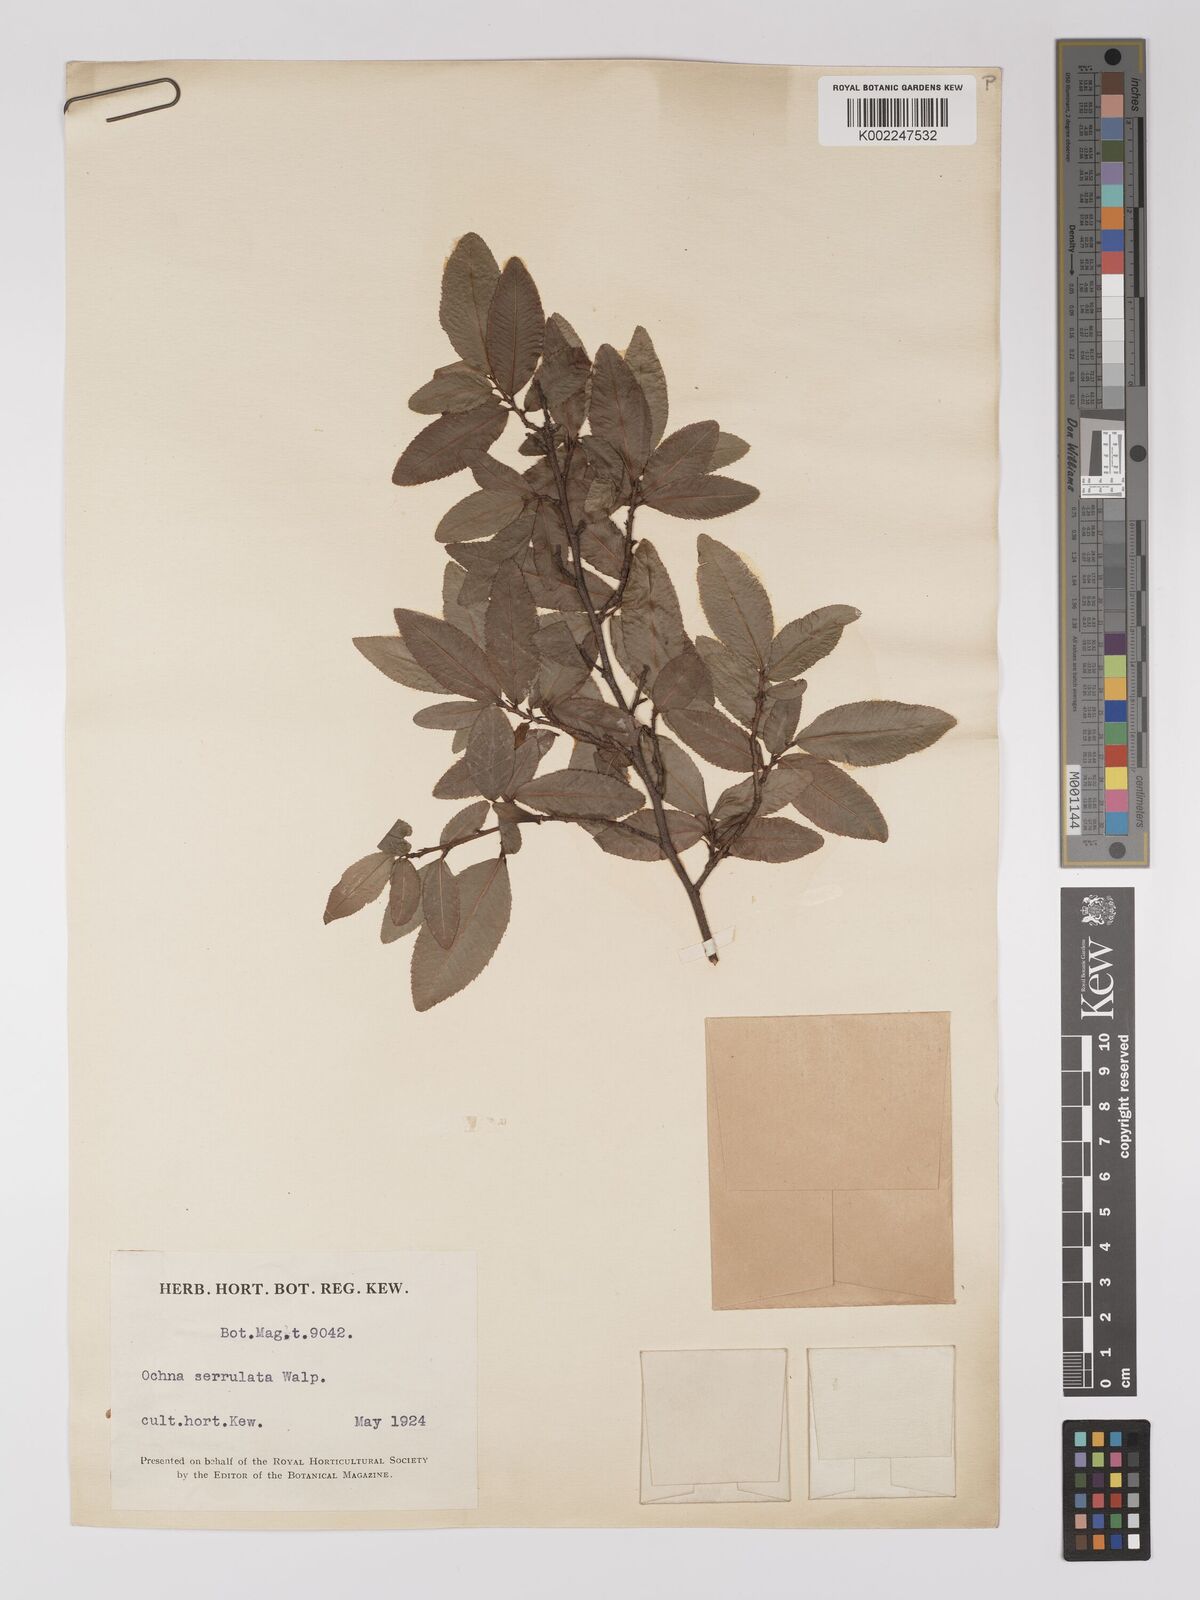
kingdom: Plantae
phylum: Tracheophyta
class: Magnoliopsida
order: Malpighiales
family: Ochnaceae
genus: Ochna
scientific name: Ochna atropurpurea
